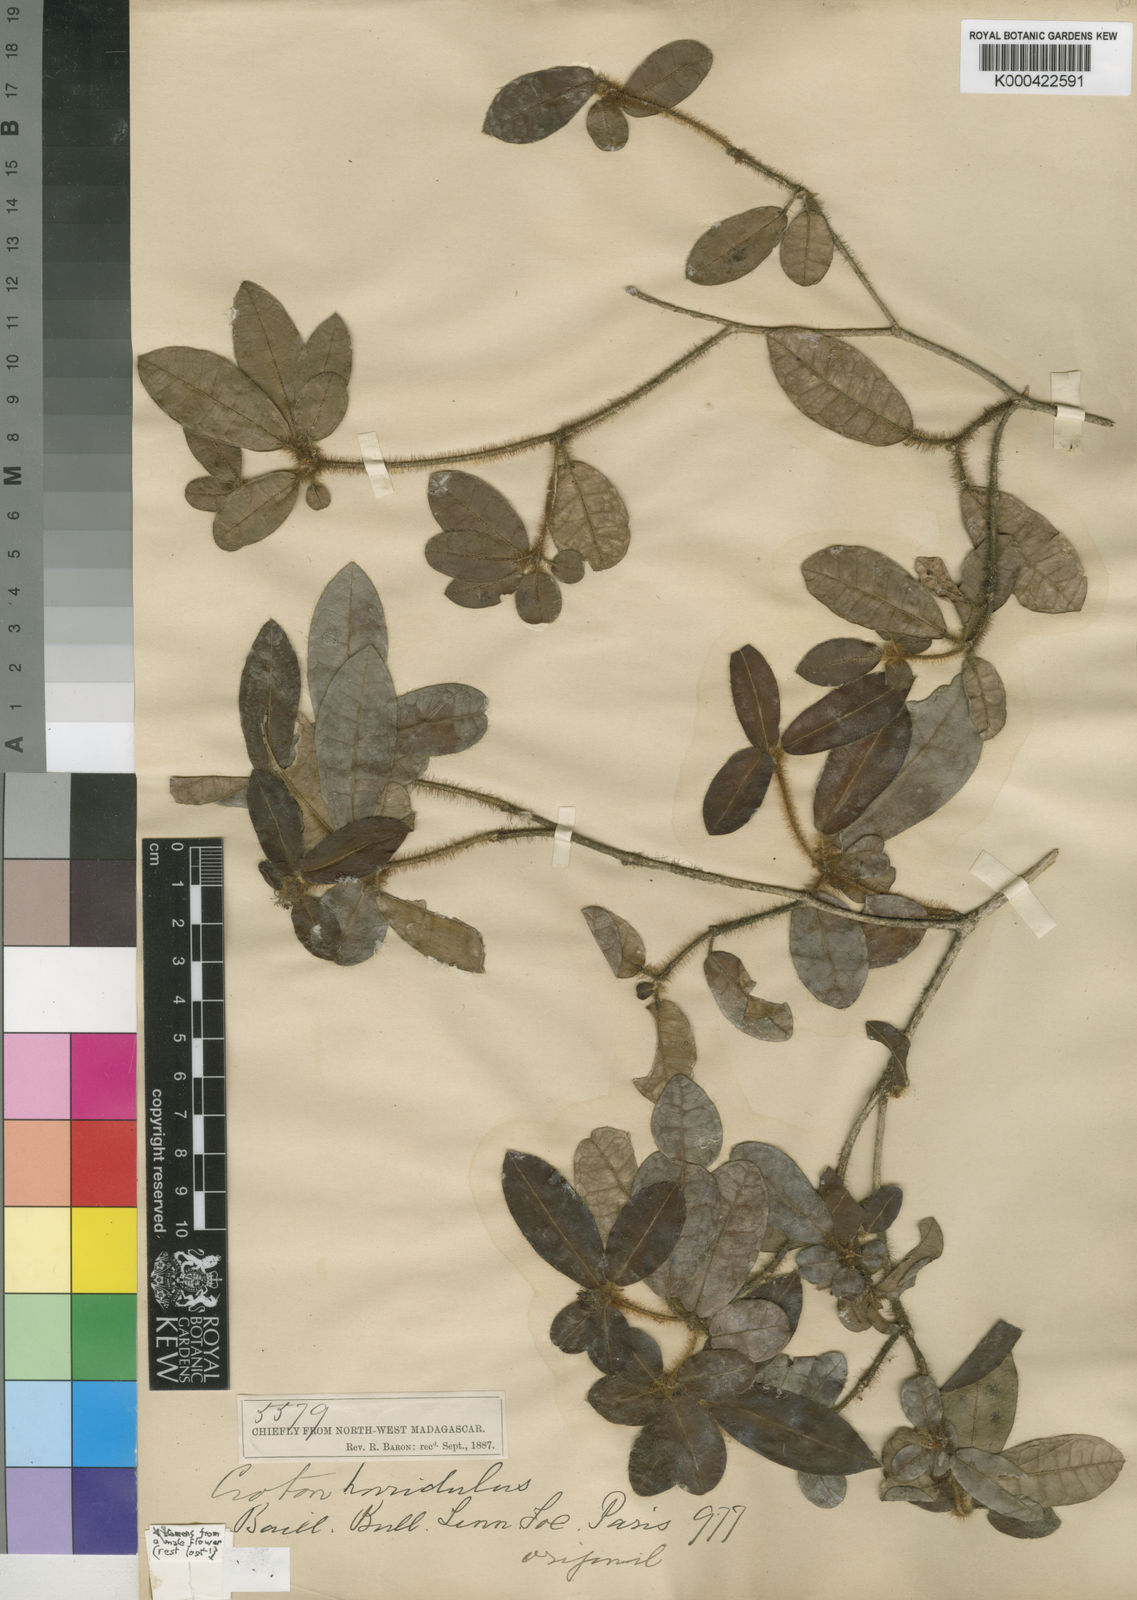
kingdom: Plantae
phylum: Tracheophyta
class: Magnoliopsida
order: Malpighiales
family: Euphorbiaceae
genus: Croton
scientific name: Croton ericius
